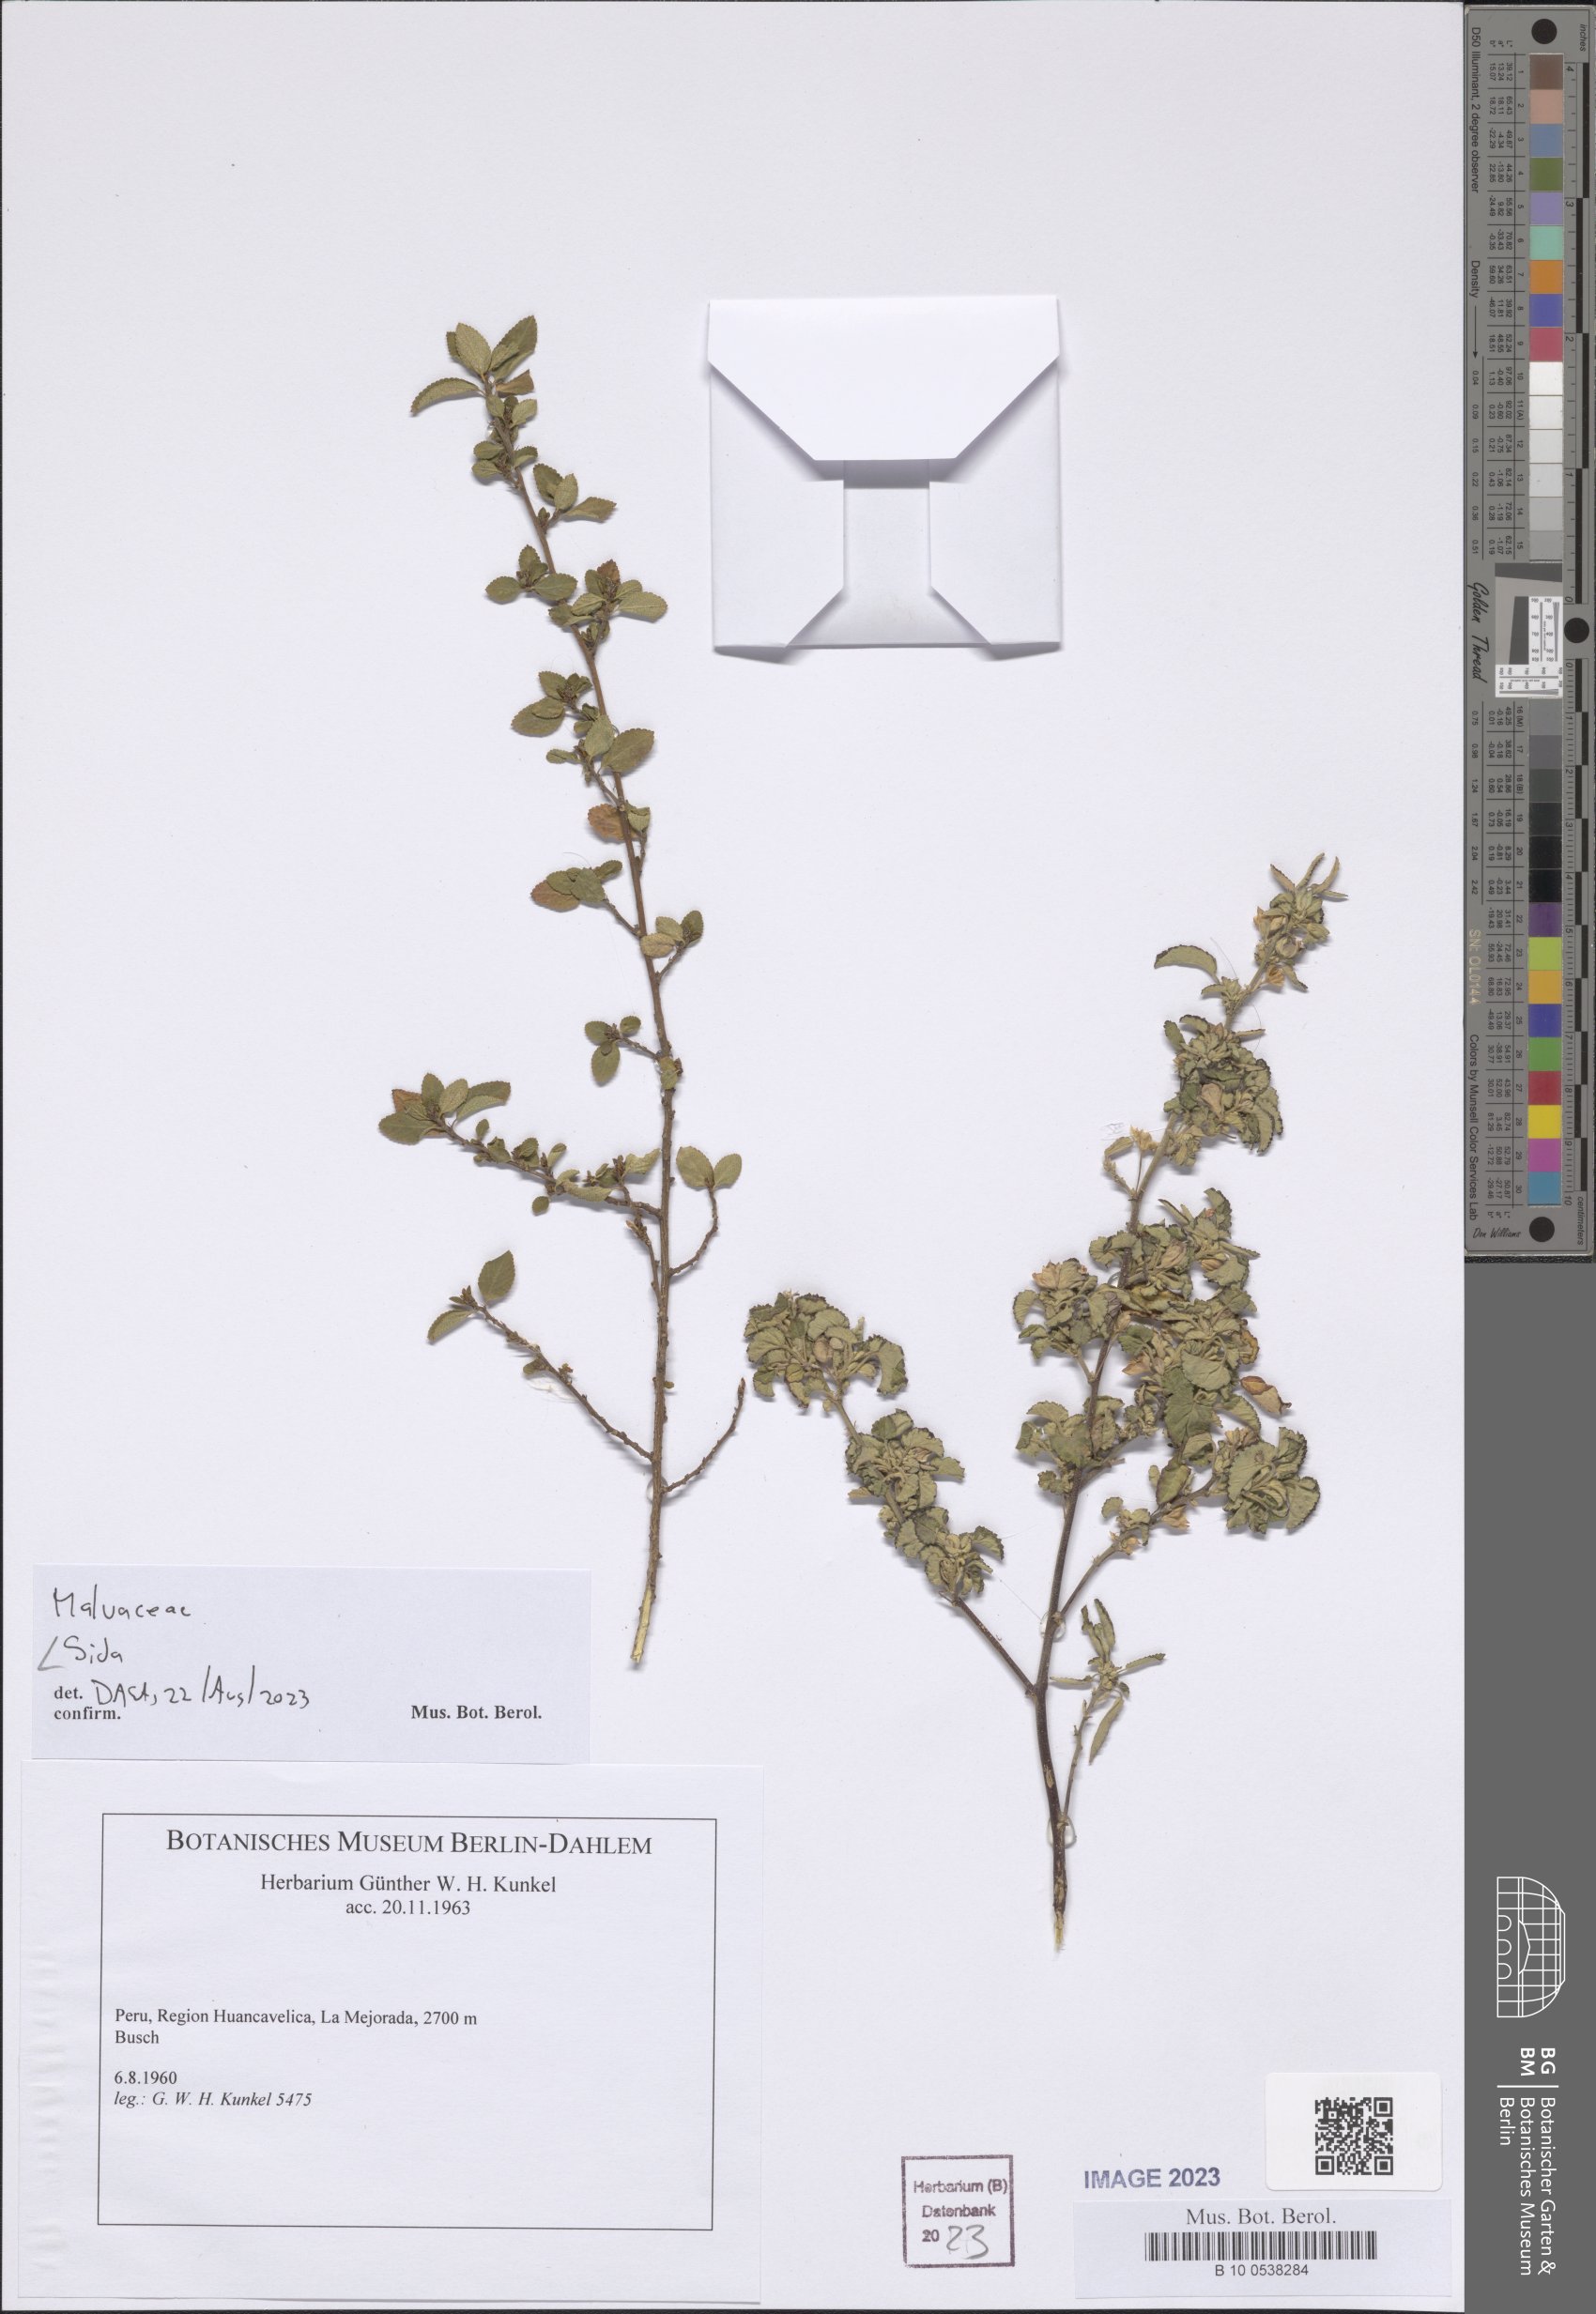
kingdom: Plantae
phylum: Tracheophyta
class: Magnoliopsida
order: Malvales
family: Malvaceae
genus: Sida
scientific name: Sida
